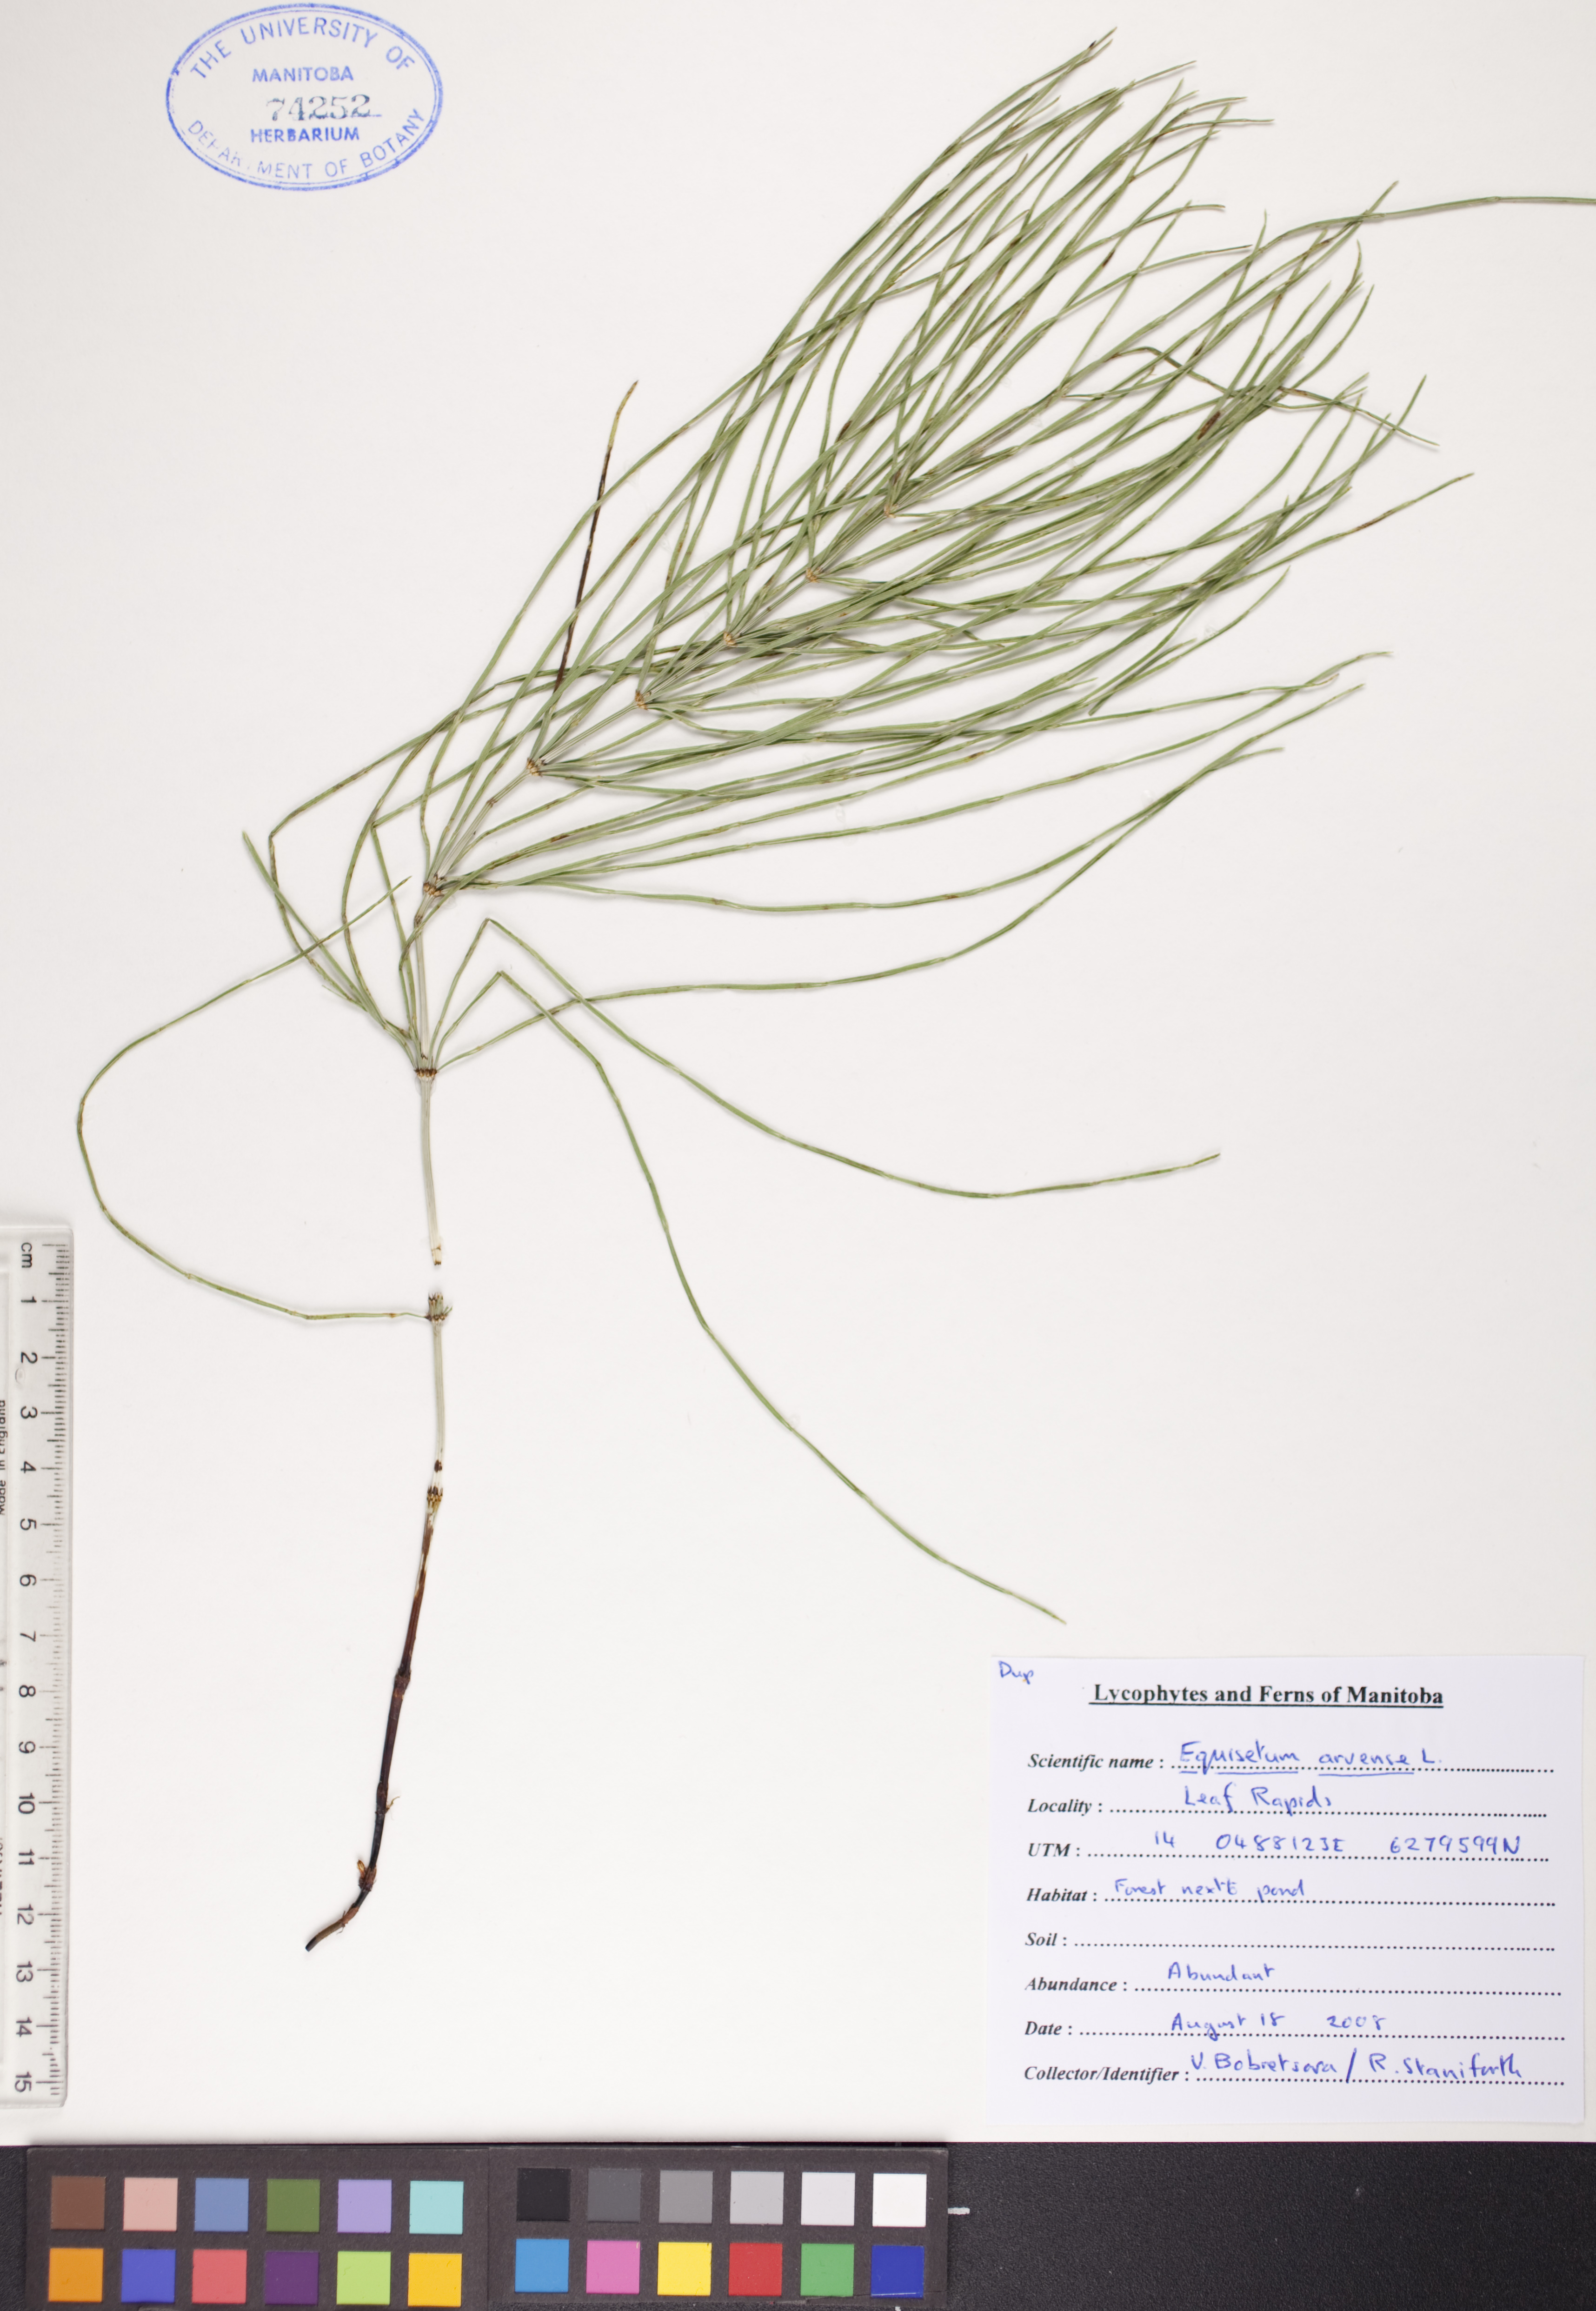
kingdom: Plantae
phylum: Tracheophyta
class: Polypodiopsida
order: Equisetales
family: Equisetaceae
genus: Equisetum
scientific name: Equisetum arvense
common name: Field horsetail
